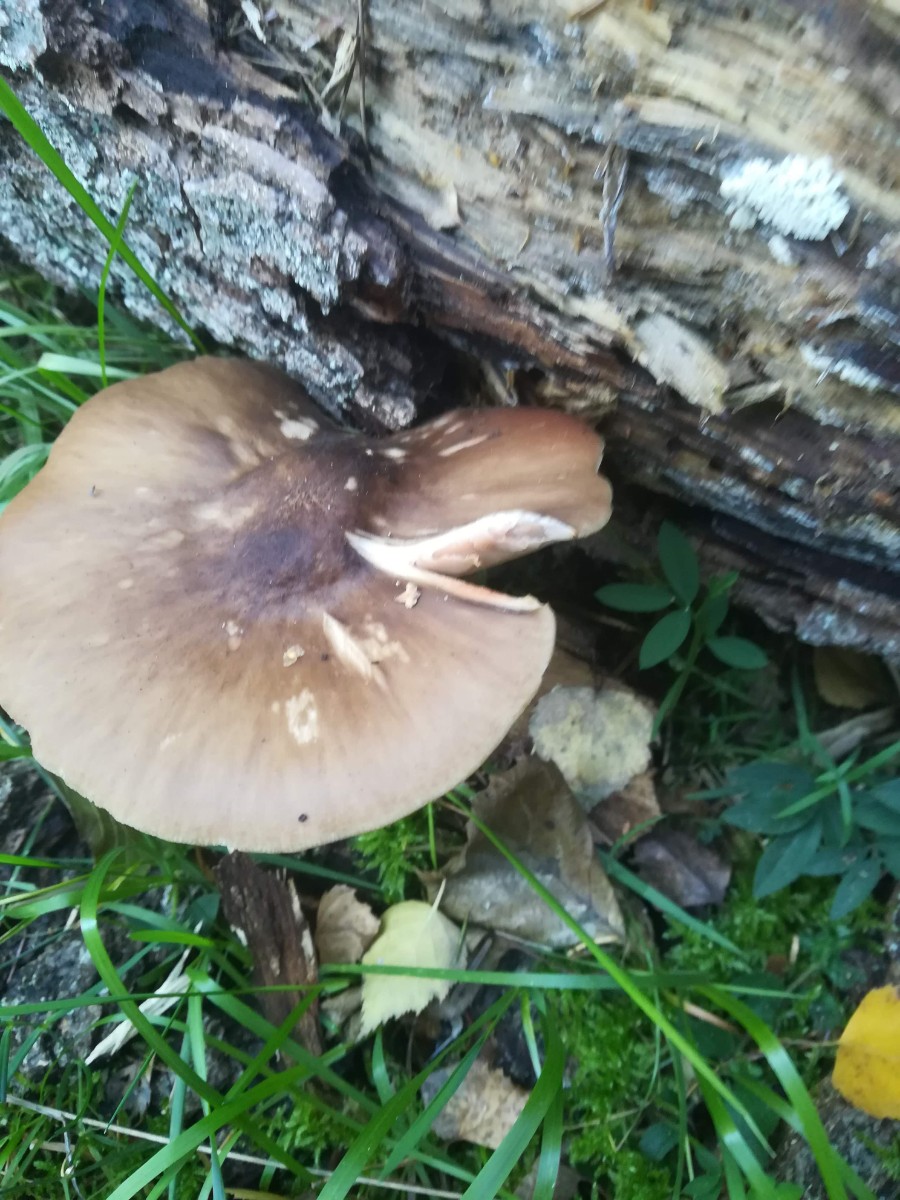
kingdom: Fungi
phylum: Basidiomycota
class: Agaricomycetes
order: Agaricales
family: Pluteaceae
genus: Pluteus
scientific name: Pluteus cervinus
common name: sodfarvet skærmhat
